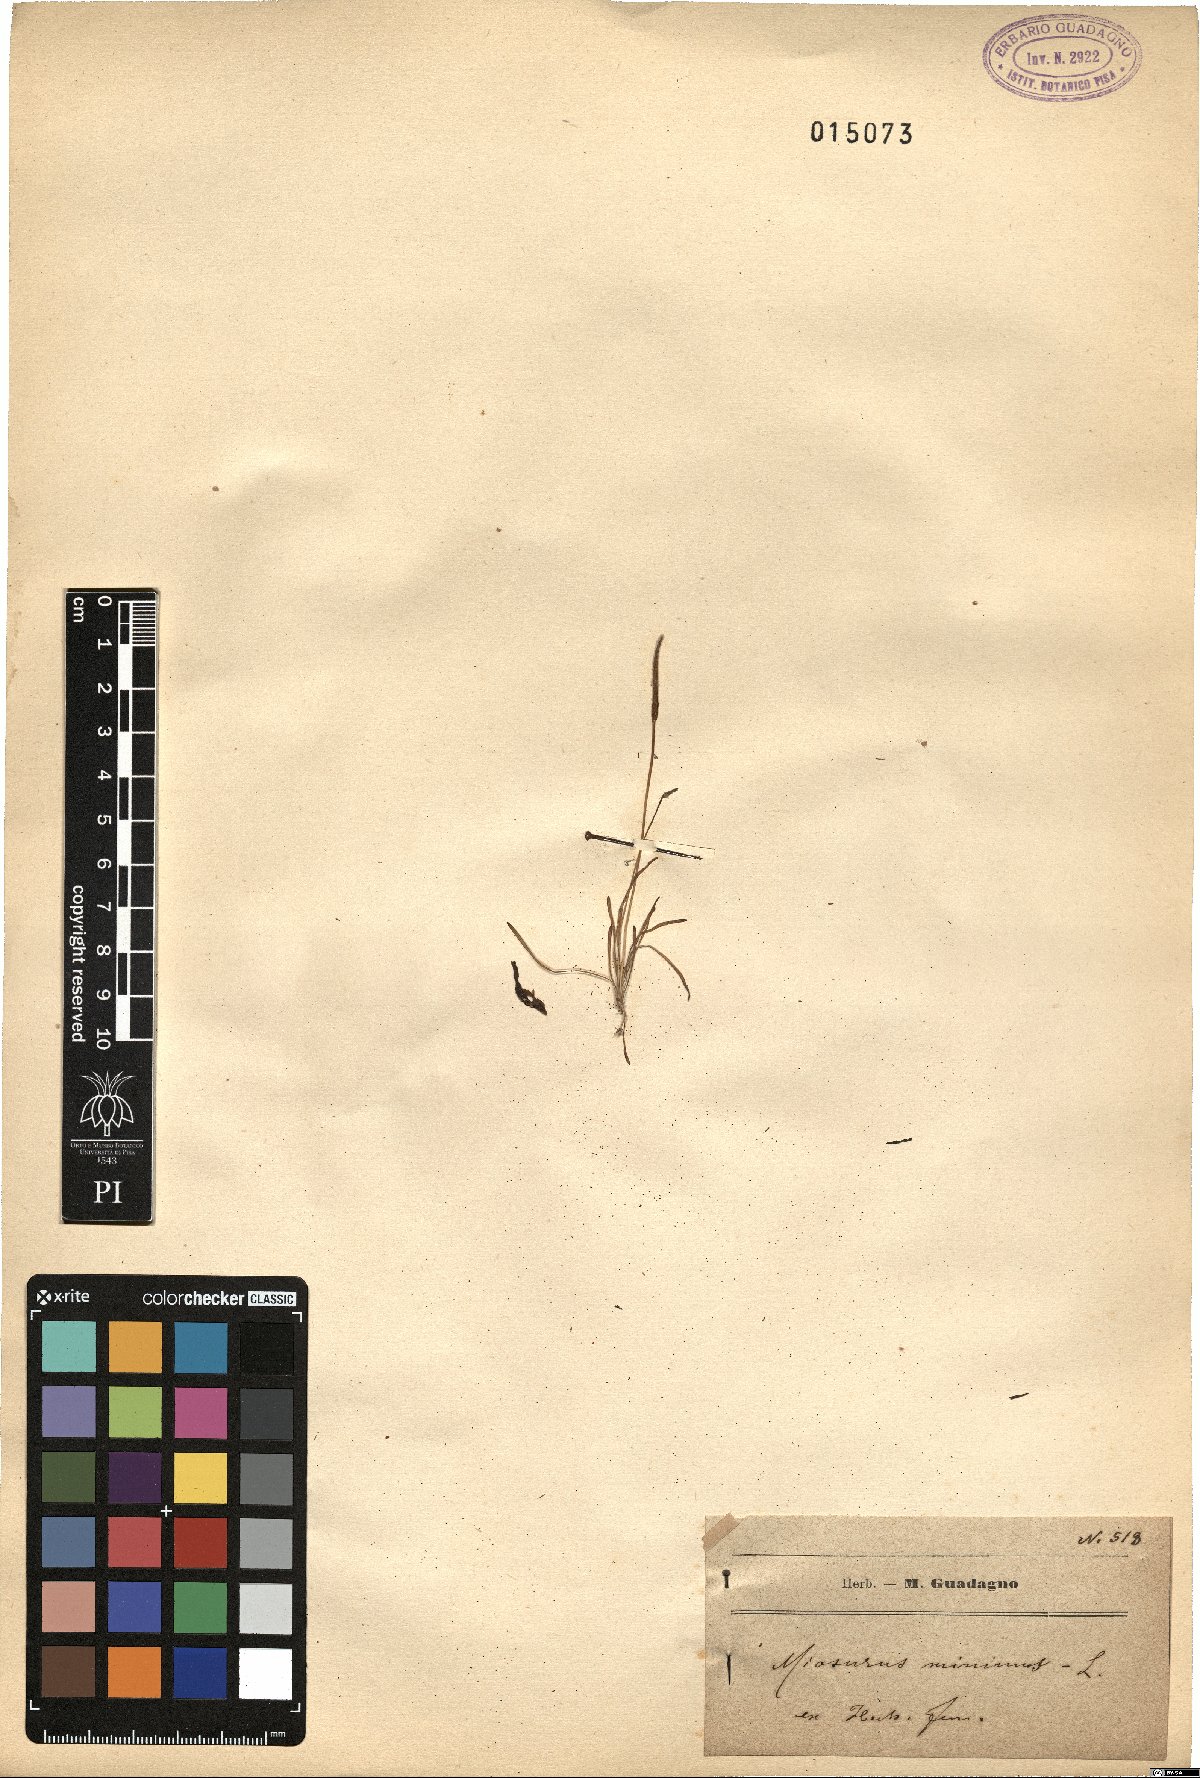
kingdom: Plantae
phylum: Tracheophyta
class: Magnoliopsida
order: Ranunculales
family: Ranunculaceae
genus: Myosurus
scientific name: Myosurus minimus
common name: Mousetail
